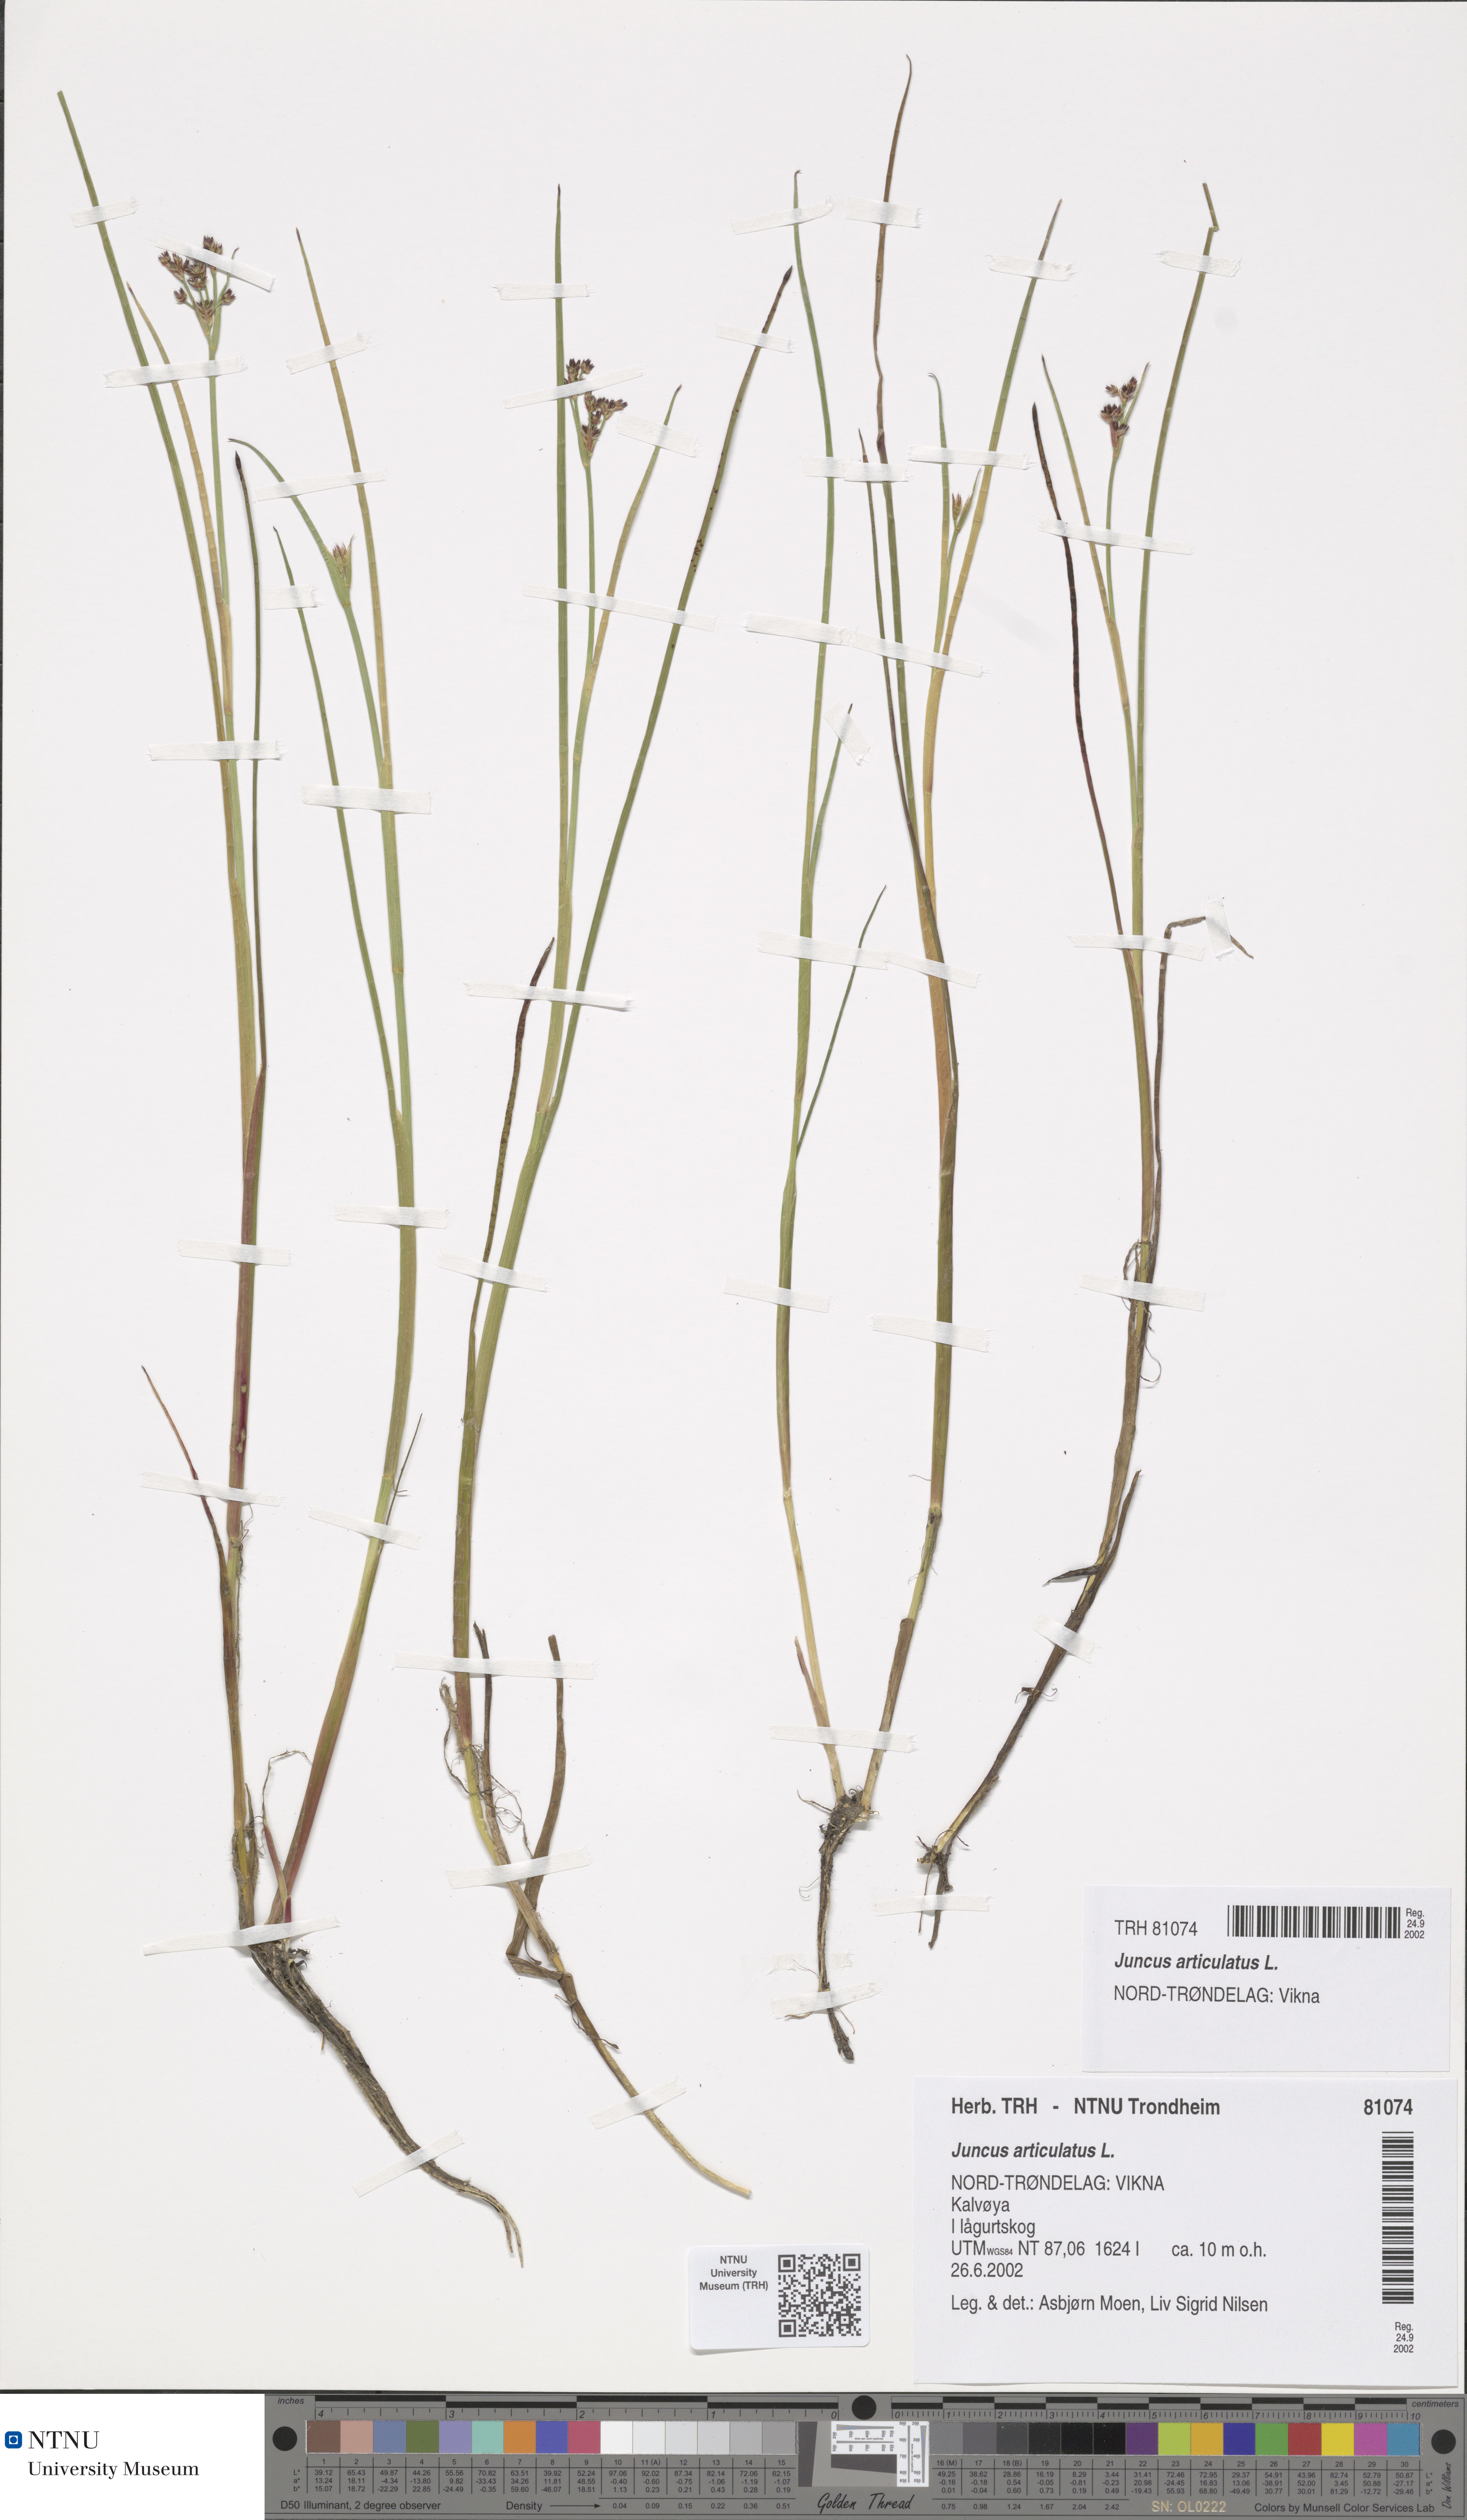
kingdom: Plantae
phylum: Tracheophyta
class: Liliopsida
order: Poales
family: Juncaceae
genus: Juncus
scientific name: Juncus articulatus
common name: Jointed rush
